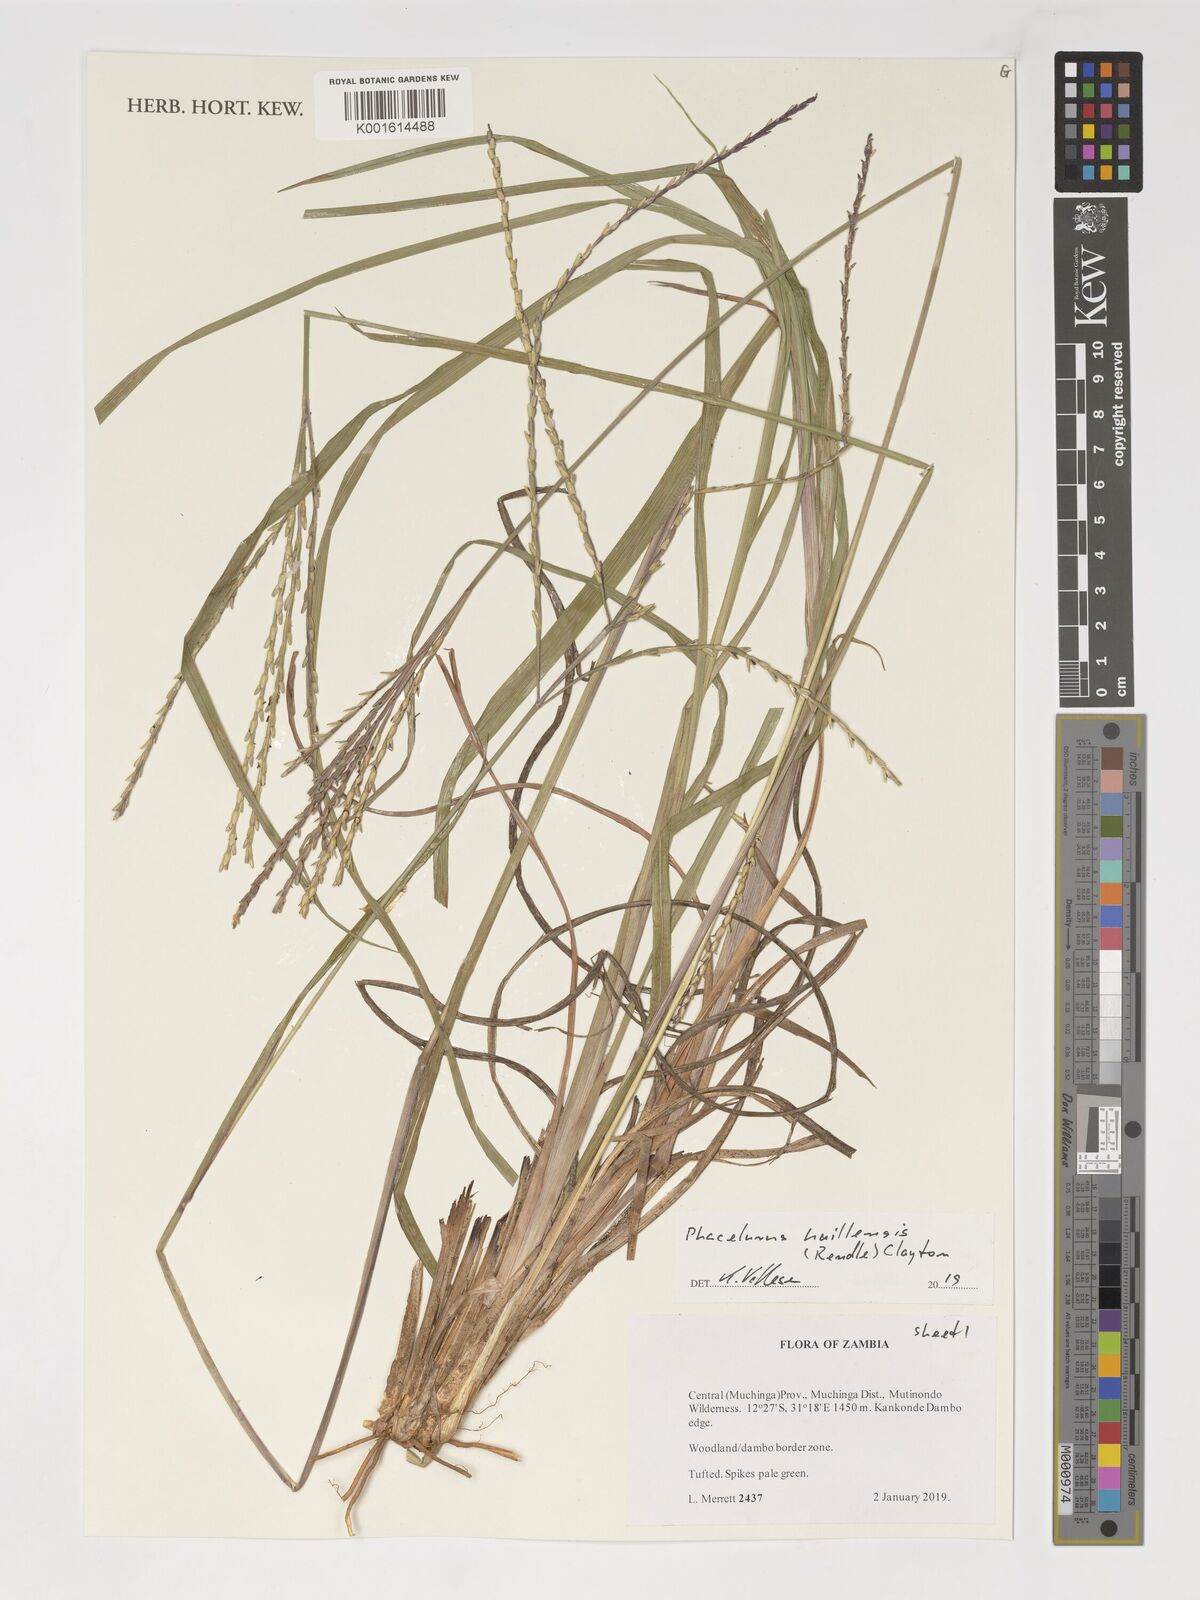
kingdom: Plantae
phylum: Tracheophyta
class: Liliopsida
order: Poales
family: Poaceae
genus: Thyrsia
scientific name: Thyrsia huillensis
